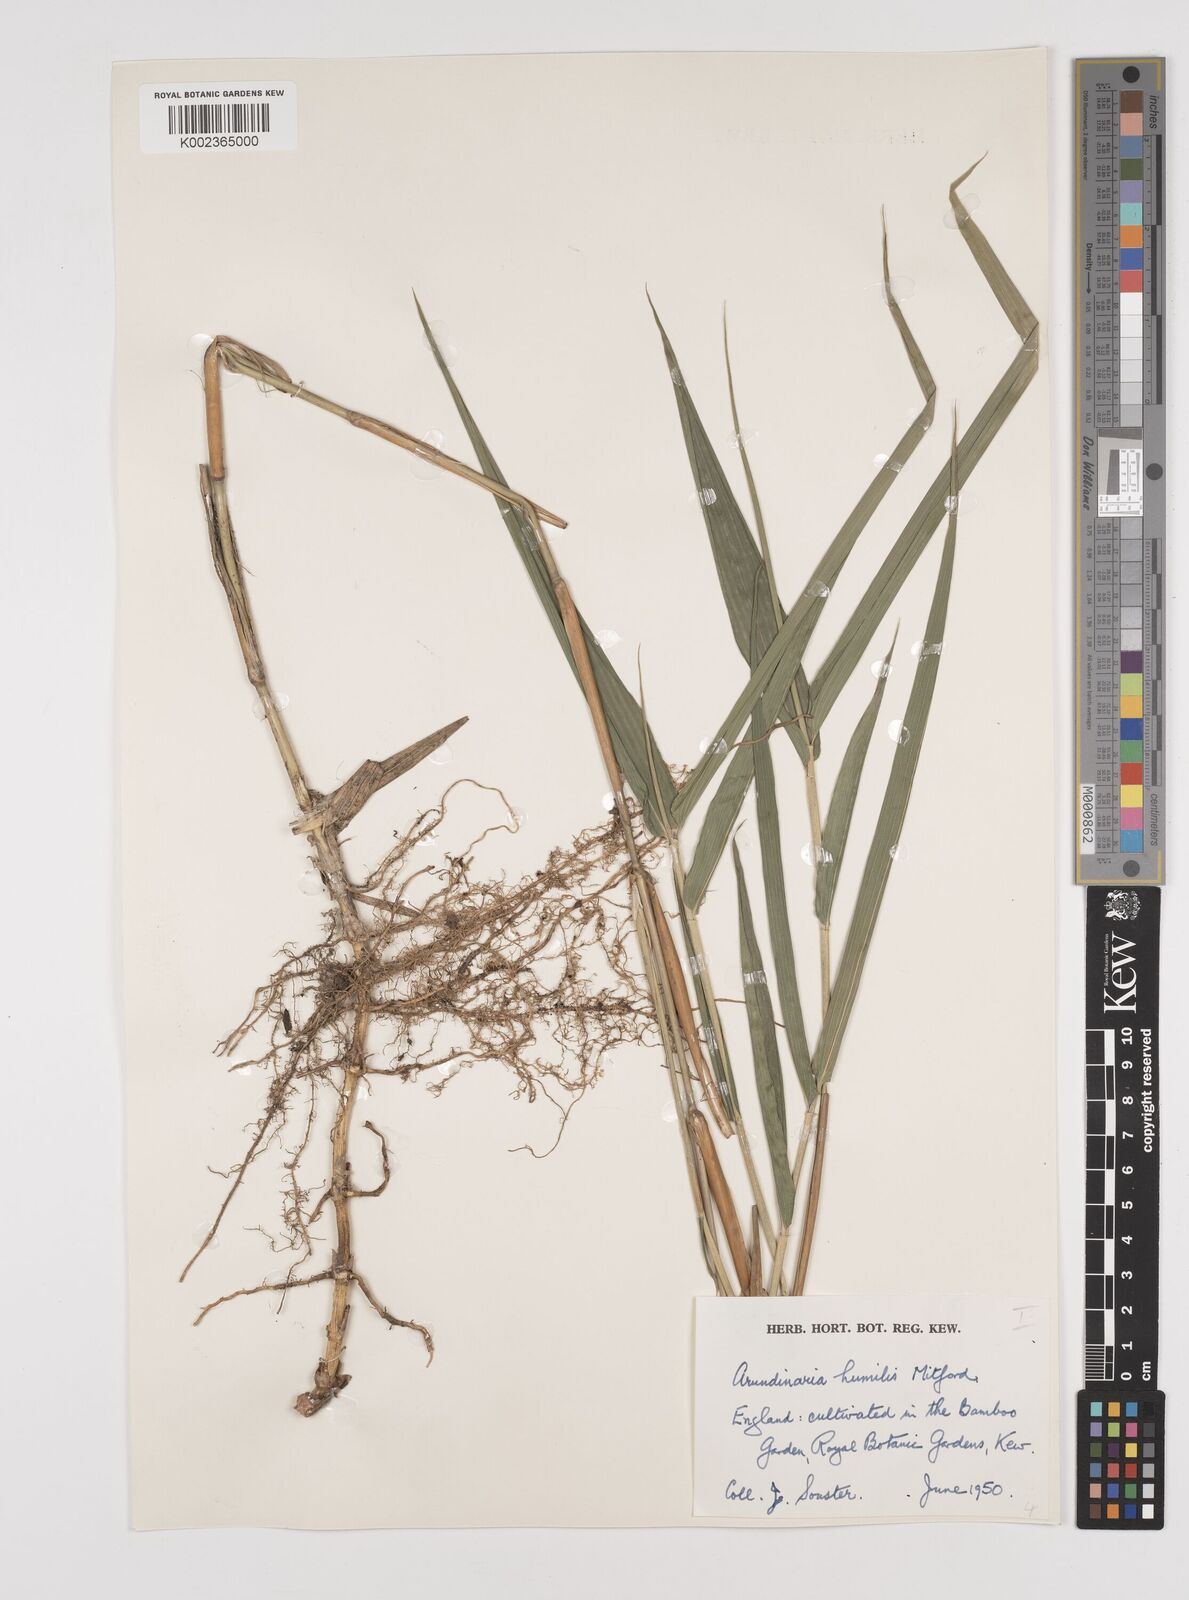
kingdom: Plantae
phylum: Tracheophyta
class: Liliopsida
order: Poales
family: Poaceae
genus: Pseudosasa
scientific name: Pseudosasa humilis
